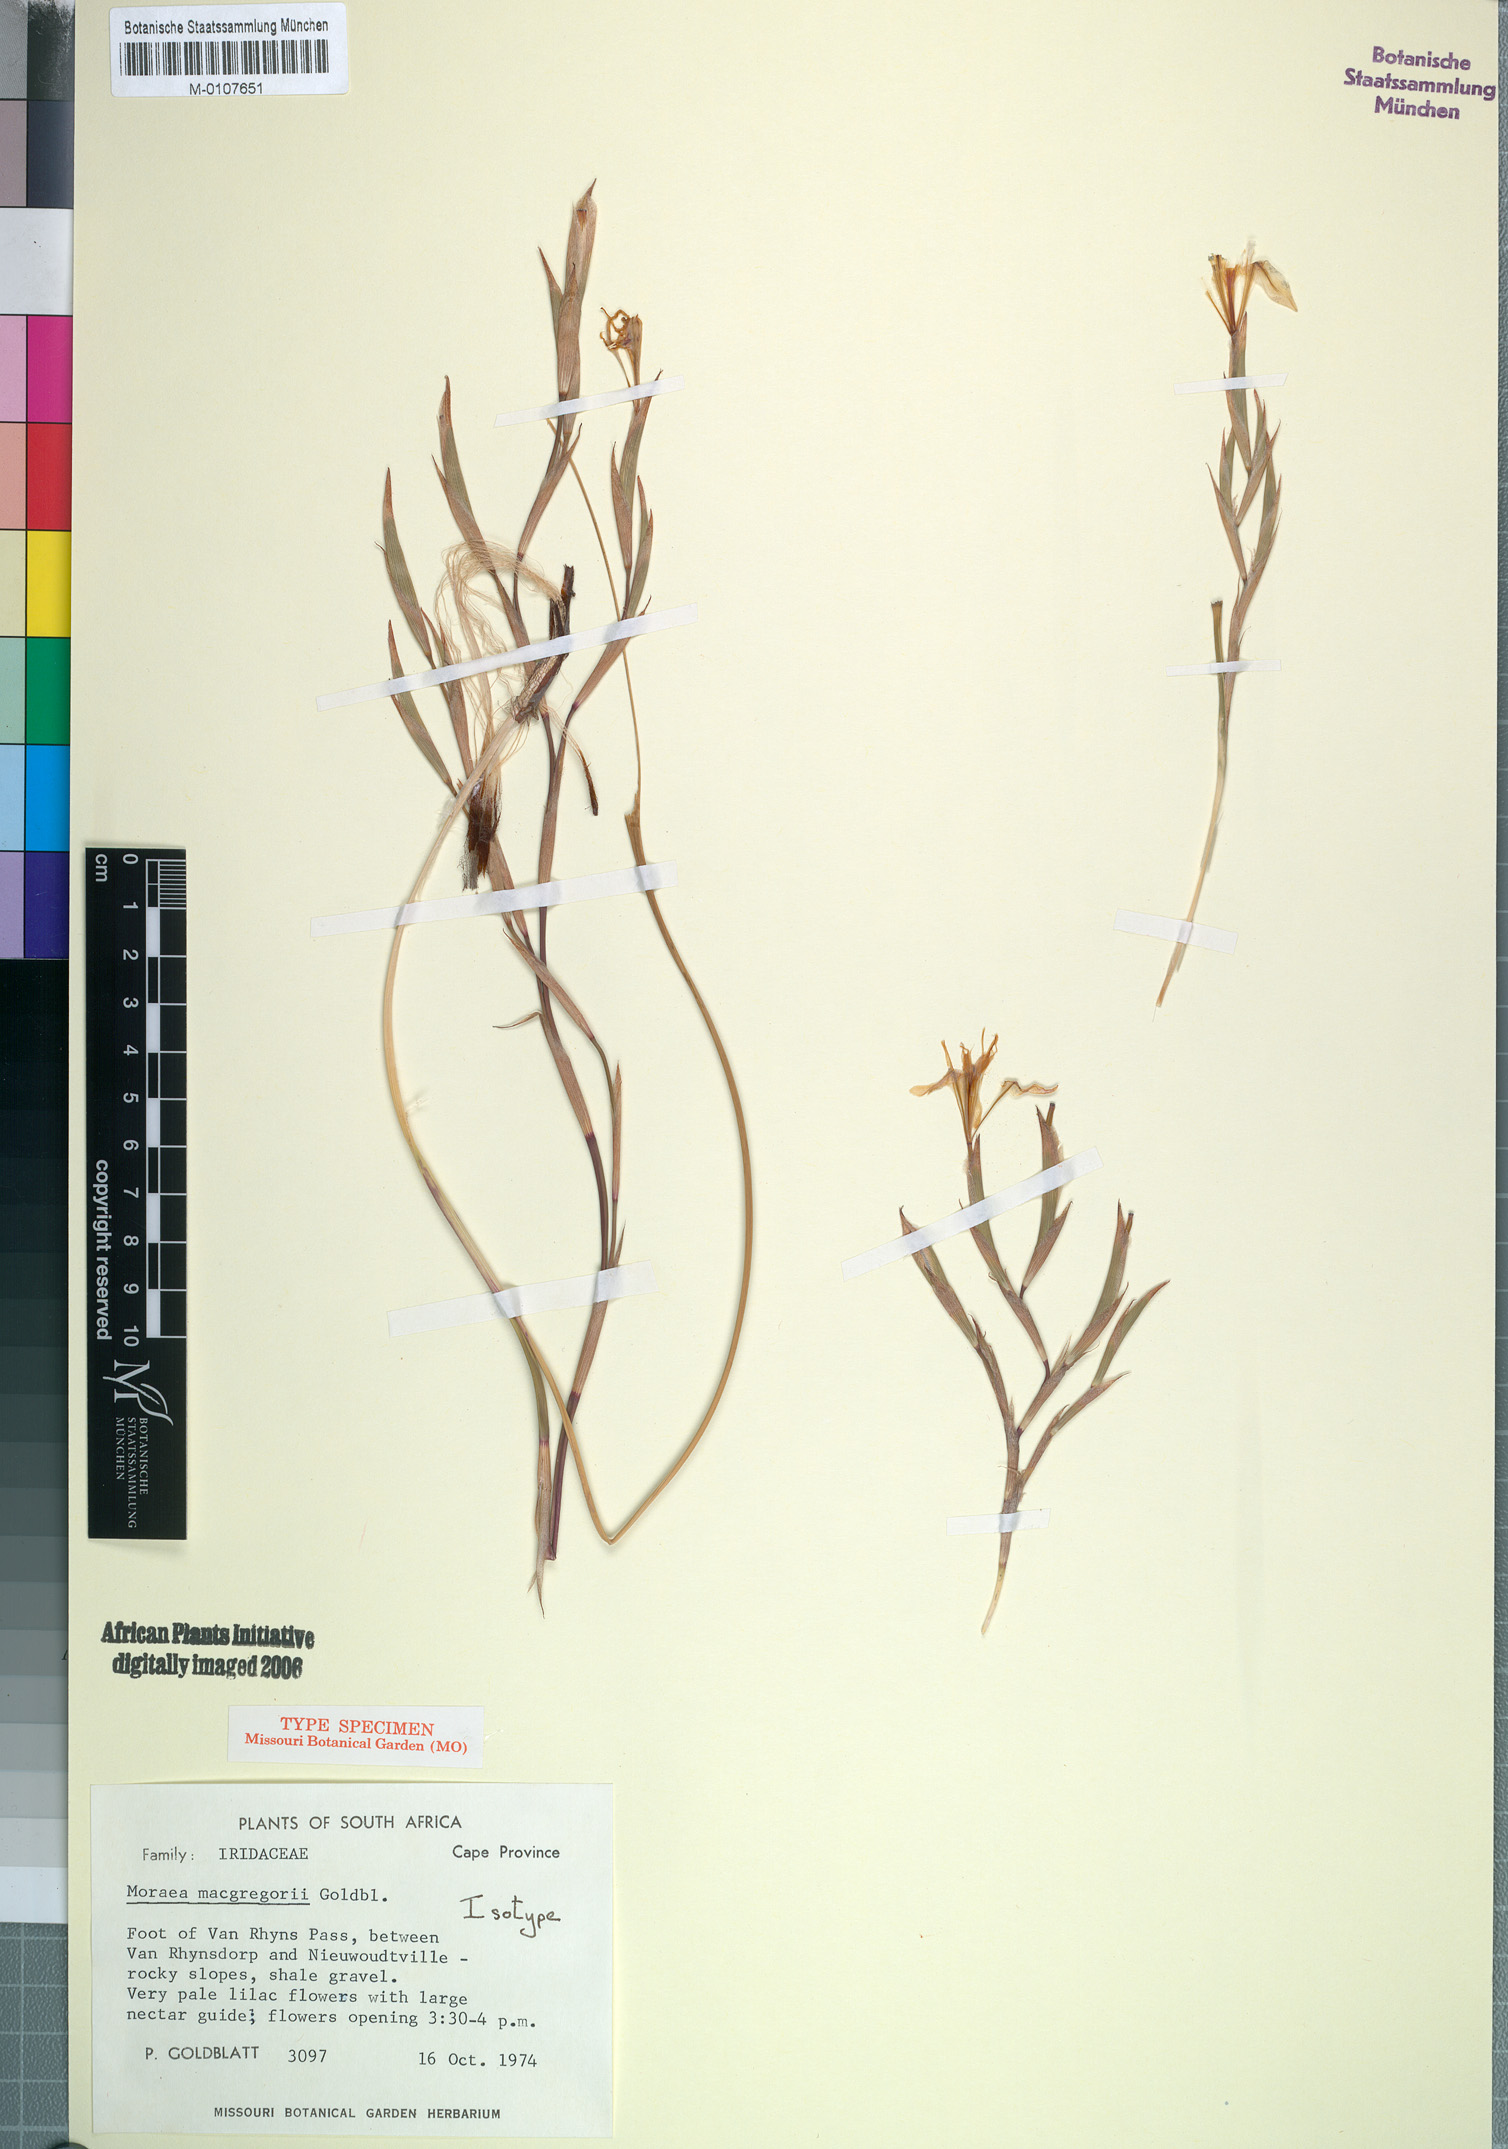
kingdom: Plantae
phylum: Tracheophyta
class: Liliopsida
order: Asparagales
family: Iridaceae
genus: Moraea
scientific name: Moraea macgregorii
